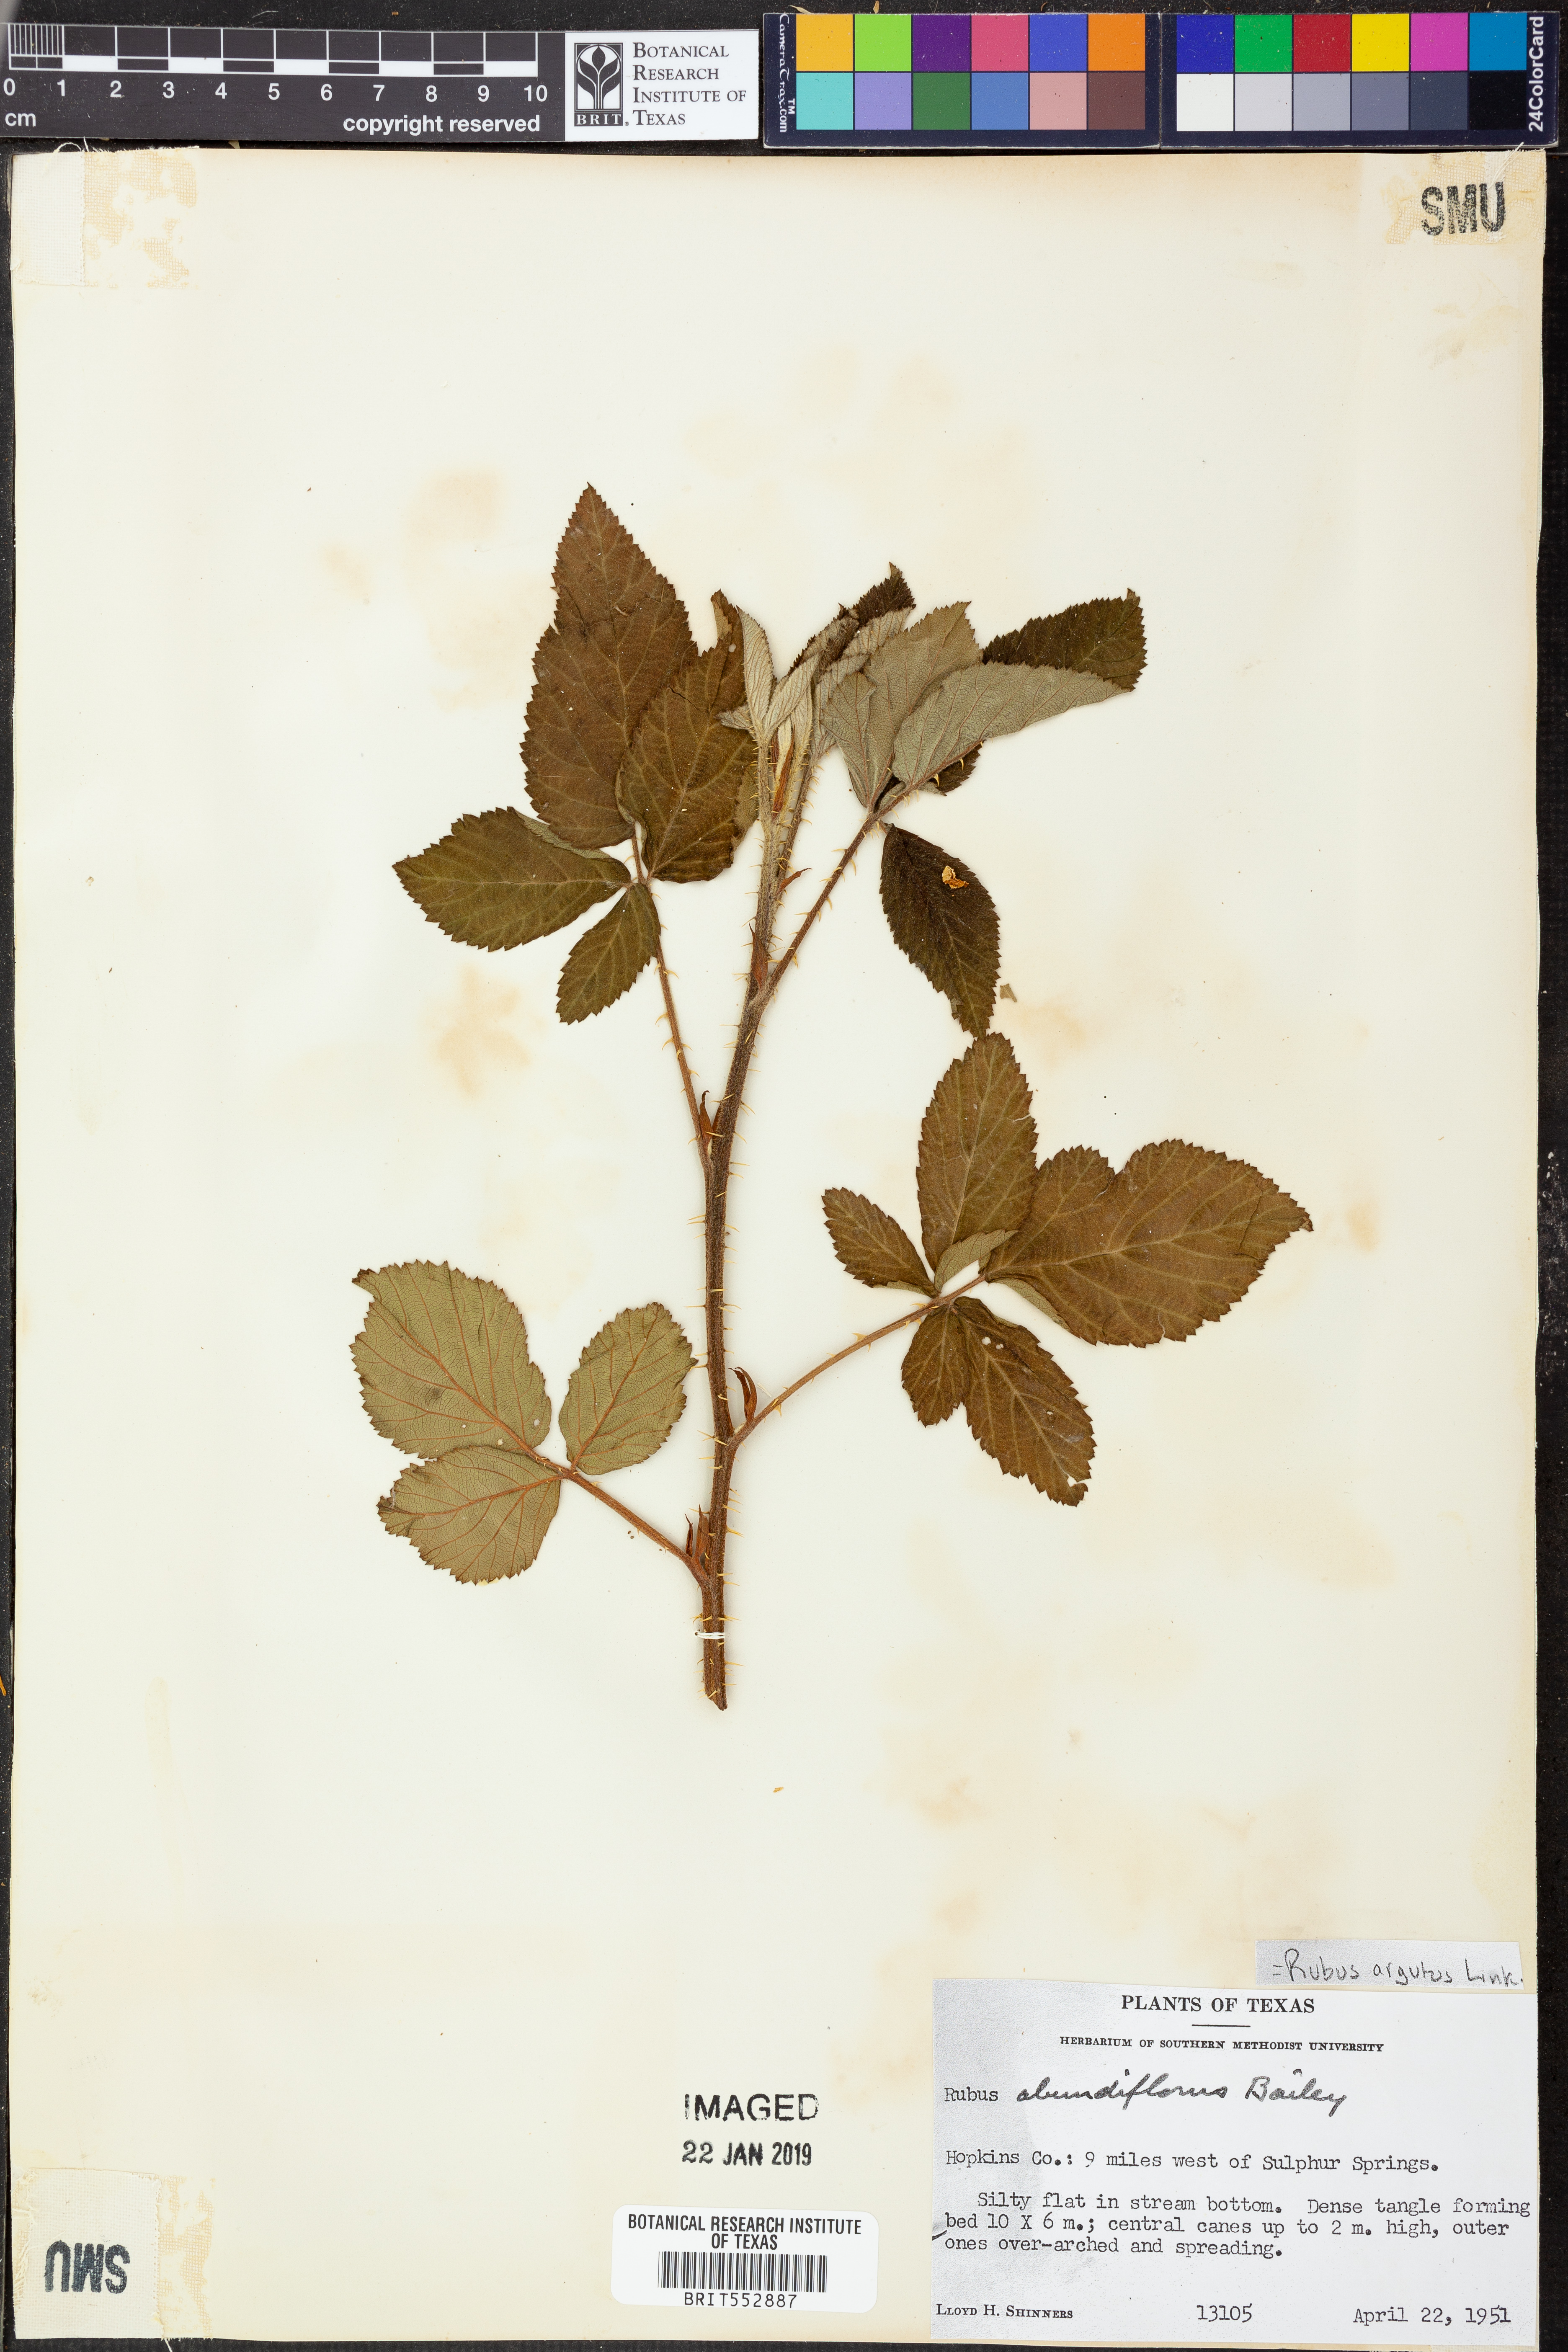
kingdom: Plantae
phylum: Tracheophyta
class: Magnoliopsida
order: Rosales
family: Rosaceae
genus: Rubus
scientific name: Rubus argutus
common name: Sawtooth blackberry
